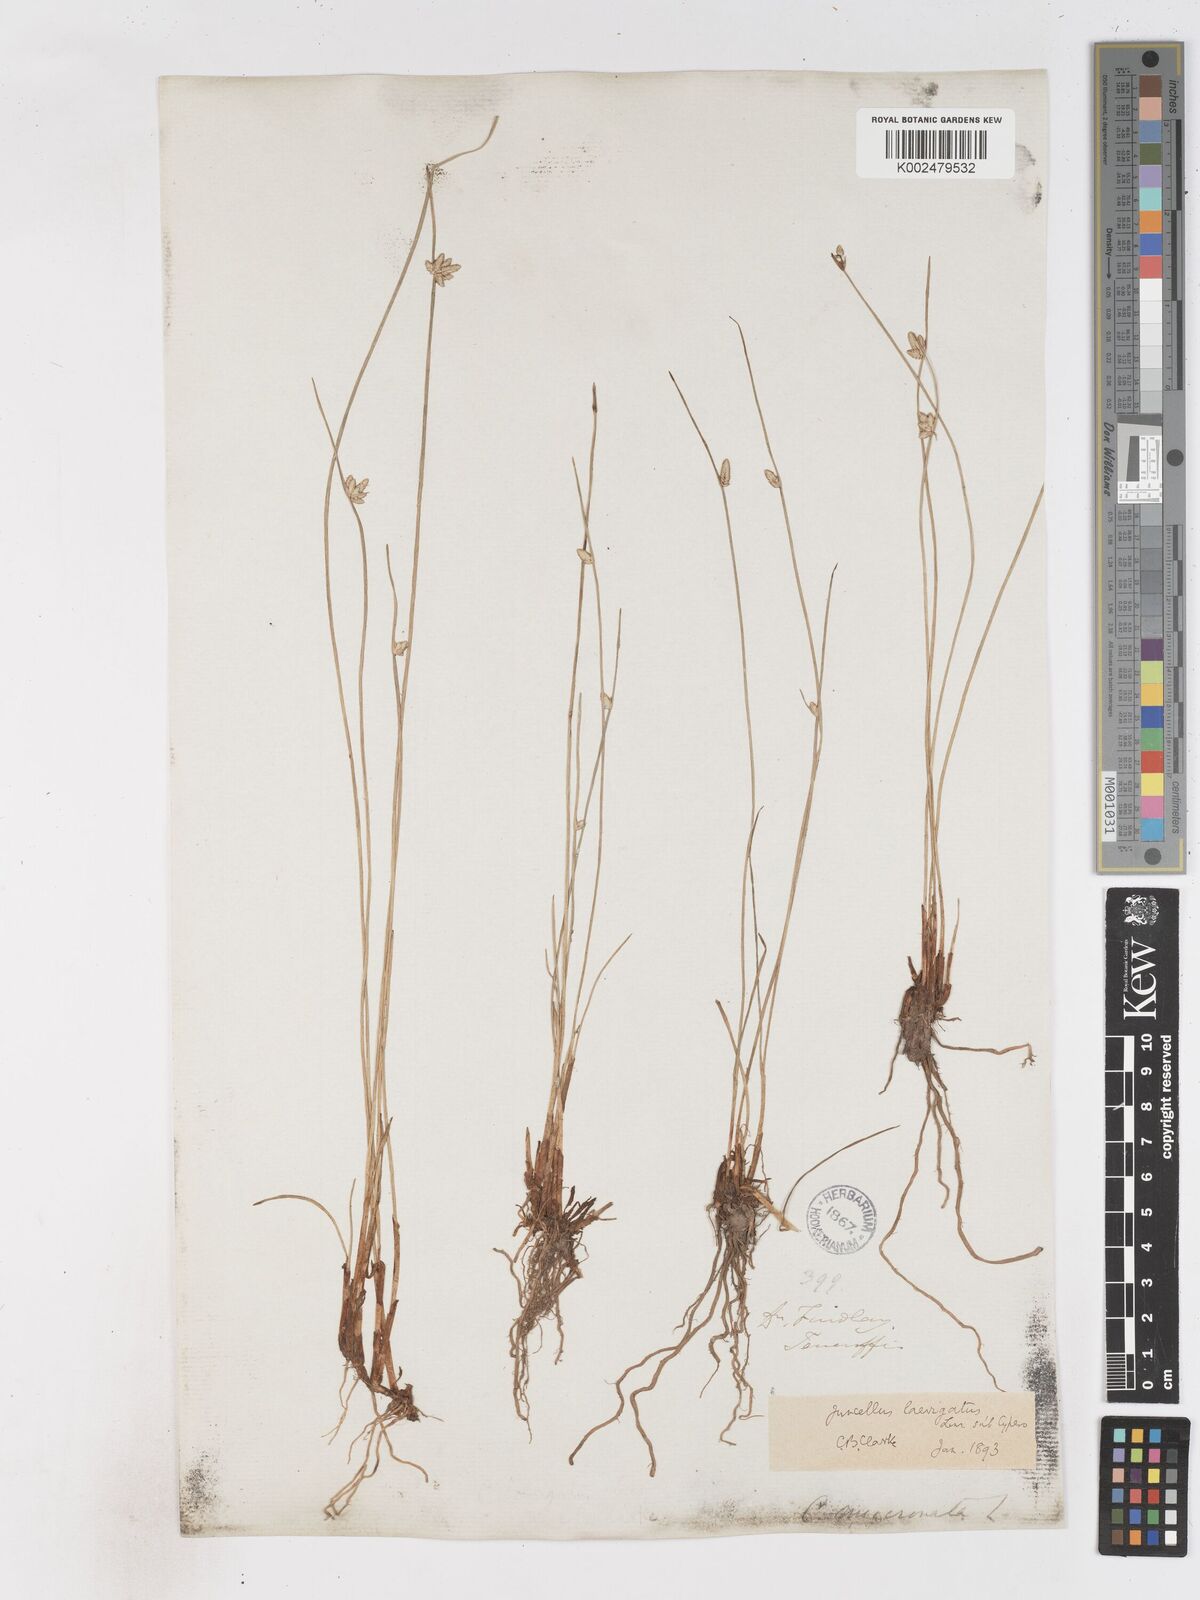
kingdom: Plantae
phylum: Tracheophyta
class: Liliopsida
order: Poales
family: Cyperaceae
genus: Cyperus
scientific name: Cyperus laevigatus
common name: Smooth flat sedge
